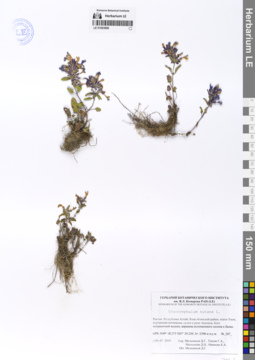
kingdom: Plantae
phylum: Tracheophyta
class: Magnoliopsida
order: Lamiales
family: Lamiaceae
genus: Dracocephalum
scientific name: Dracocephalum nutans
